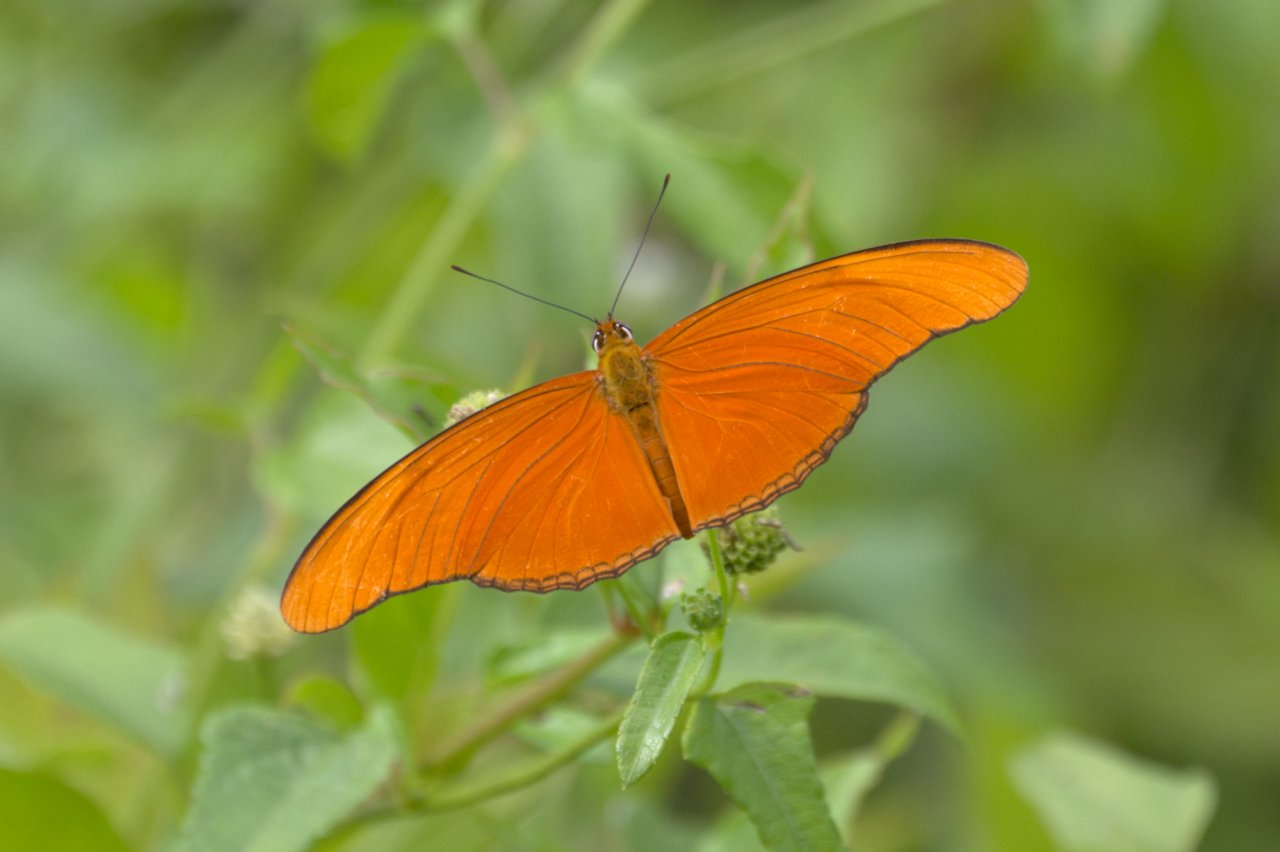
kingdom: Animalia
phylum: Arthropoda
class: Insecta
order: Lepidoptera
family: Nymphalidae
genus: Dryas
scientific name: Dryas iulia
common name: Julia
